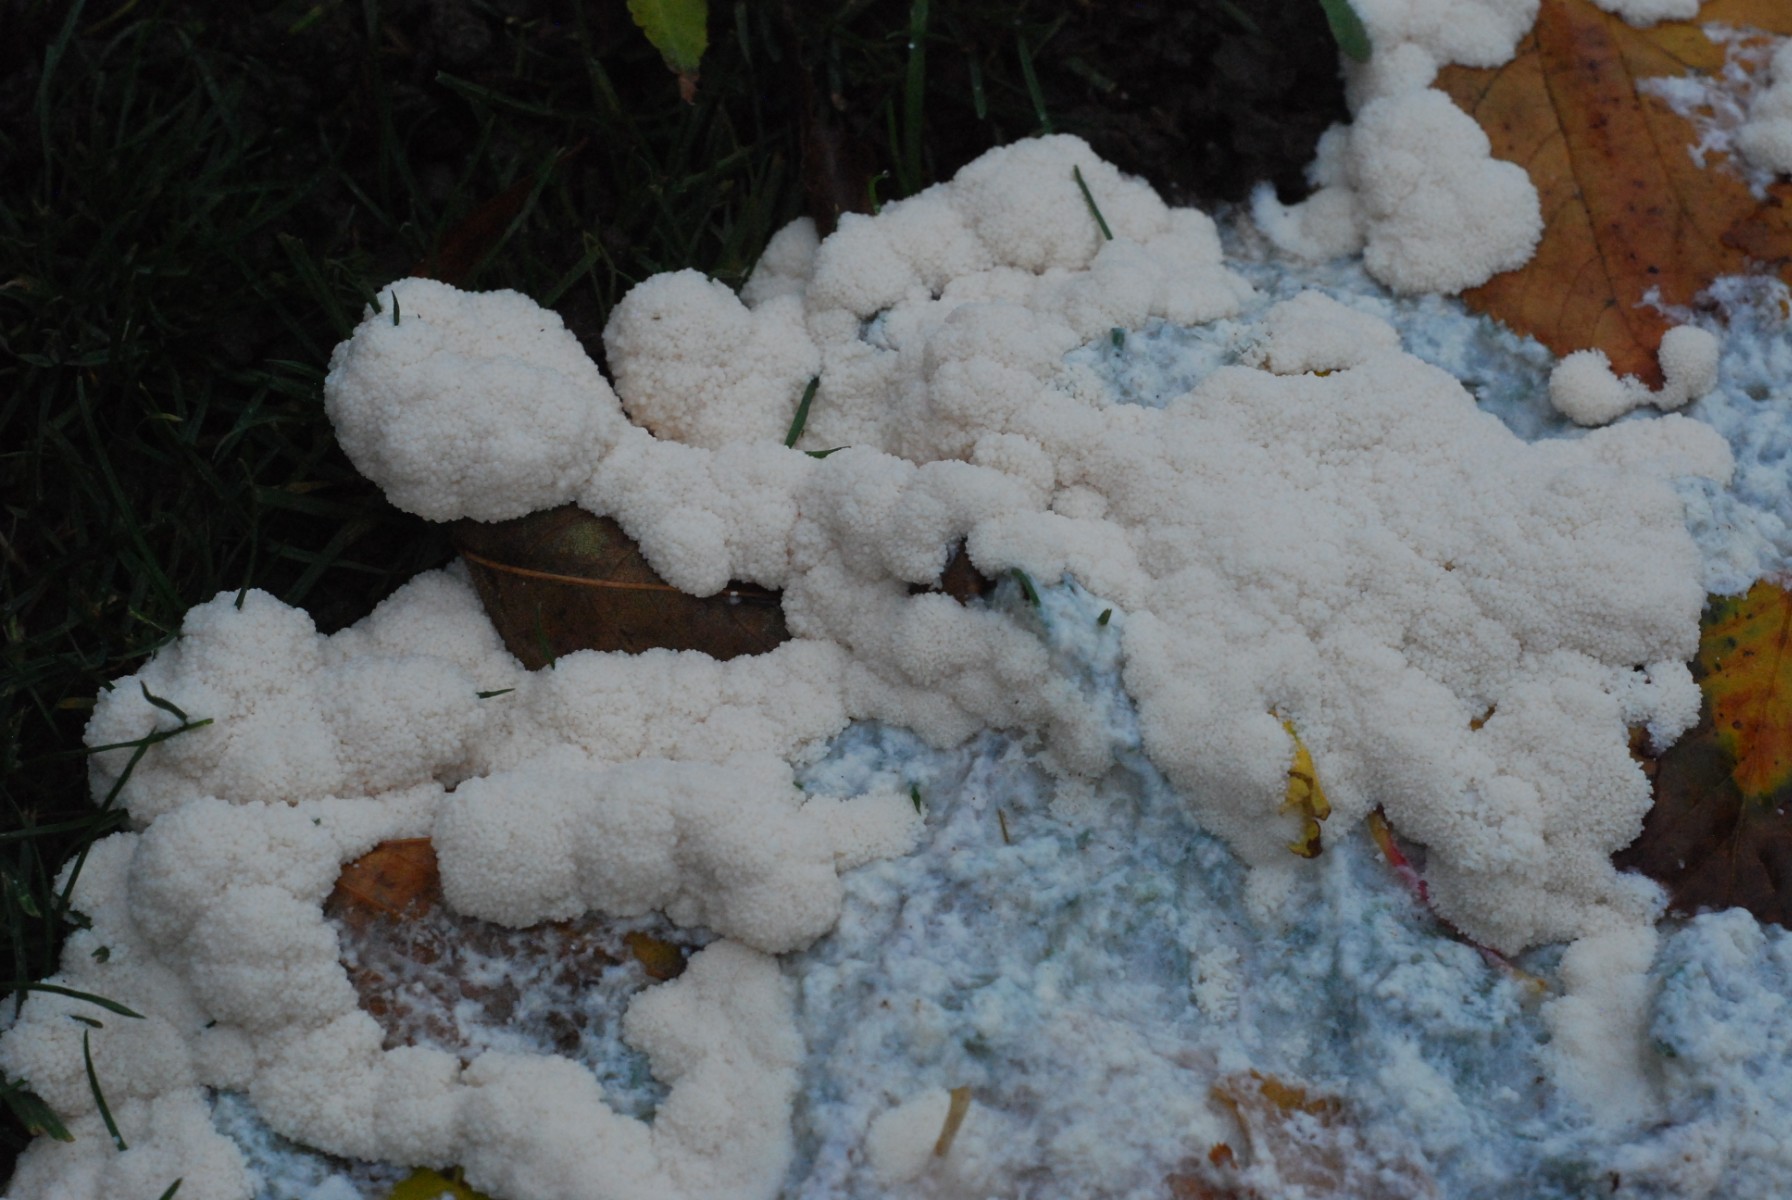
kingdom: Protozoa
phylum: Mycetozoa
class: Myxomycetes
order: Stemonitidales
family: Stemonitidaceae
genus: Brefeldia
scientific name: Brefeldia maxima
